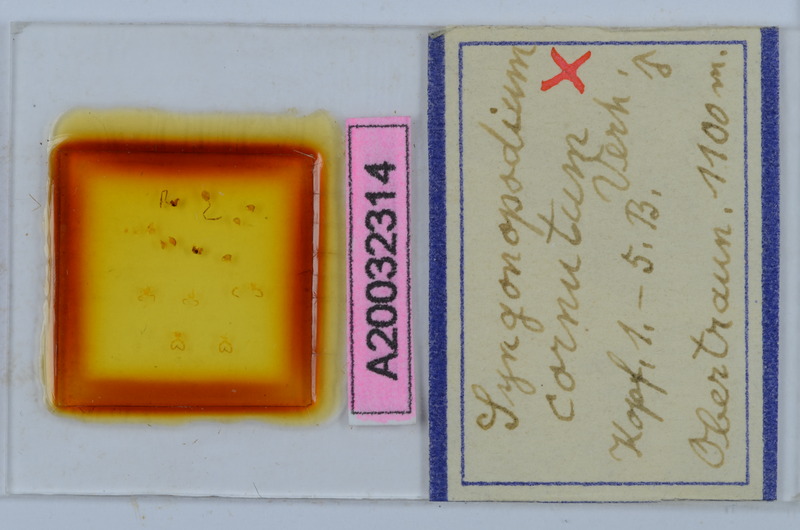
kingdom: Animalia
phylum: Arthropoda
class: Diplopoda
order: Chordeumatida
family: Attemsiidae
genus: Syngonopodium
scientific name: Syngonopodium cornutum
